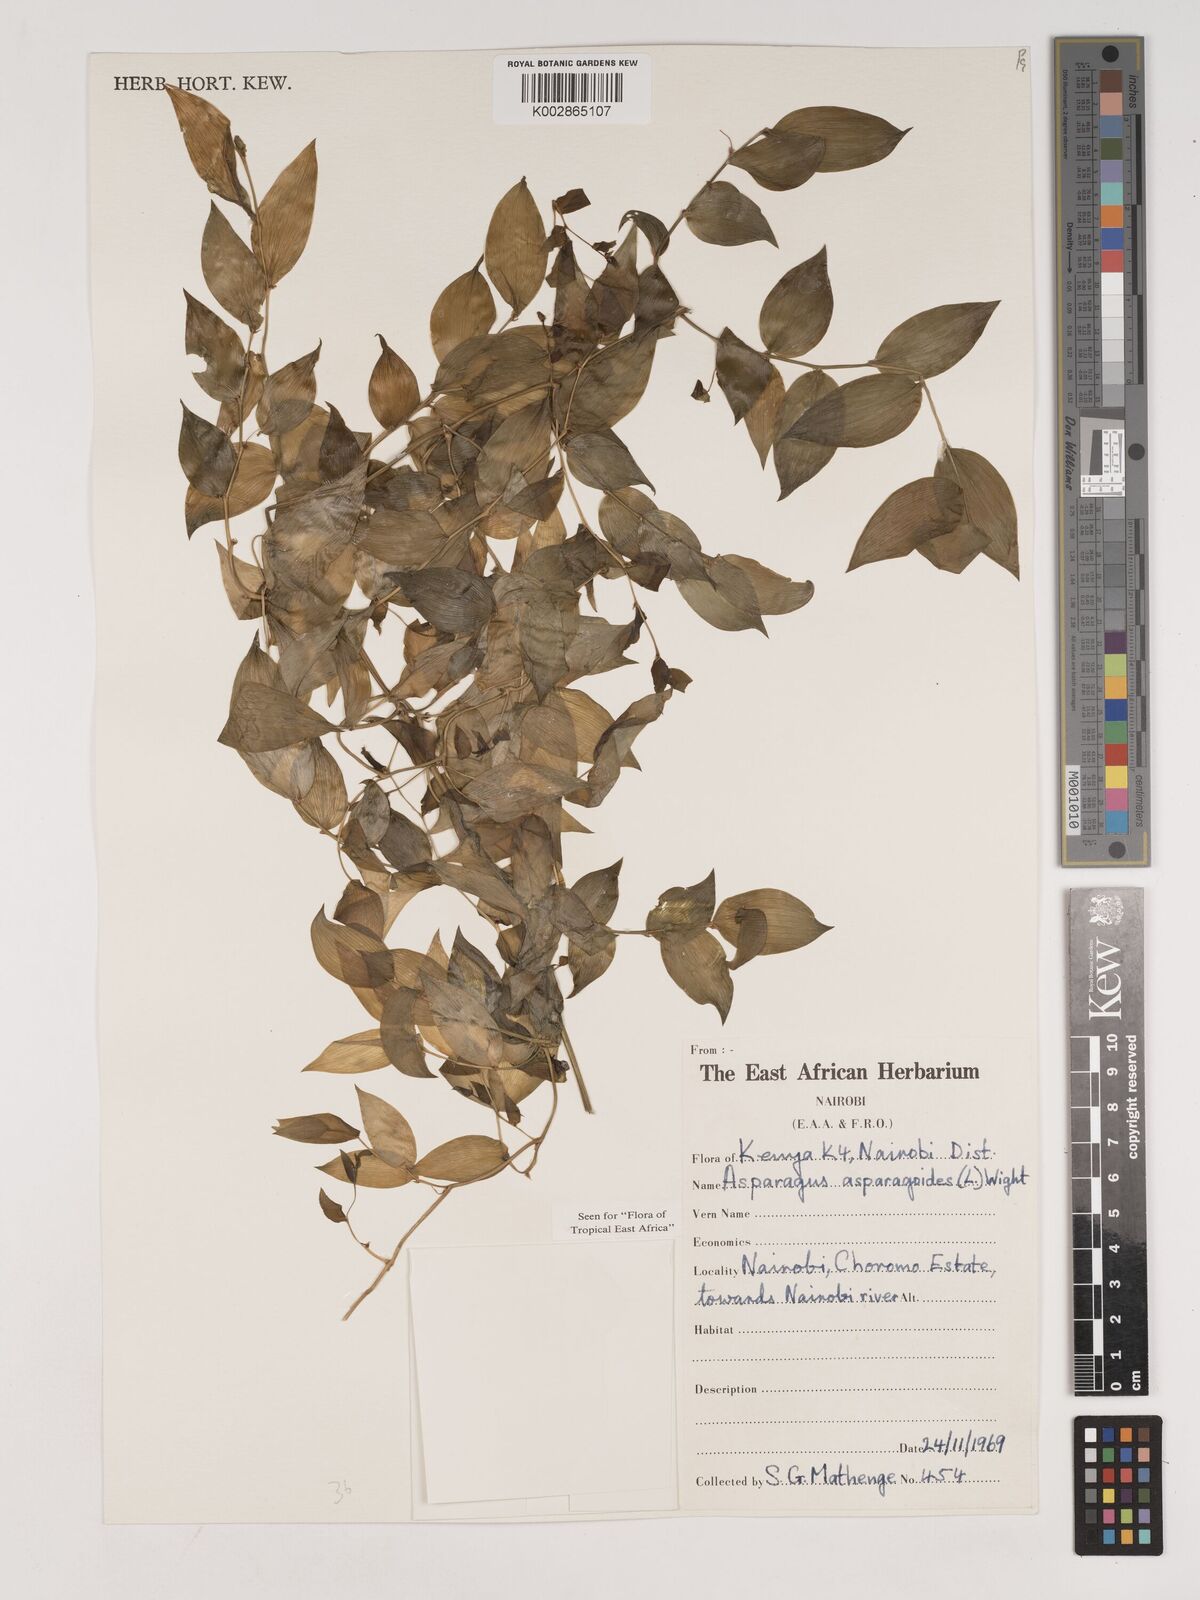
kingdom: Plantae
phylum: Tracheophyta
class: Liliopsida
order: Asparagales
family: Asparagaceae
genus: Asparagus
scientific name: Asparagus asparagoides
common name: African asparagus fern
